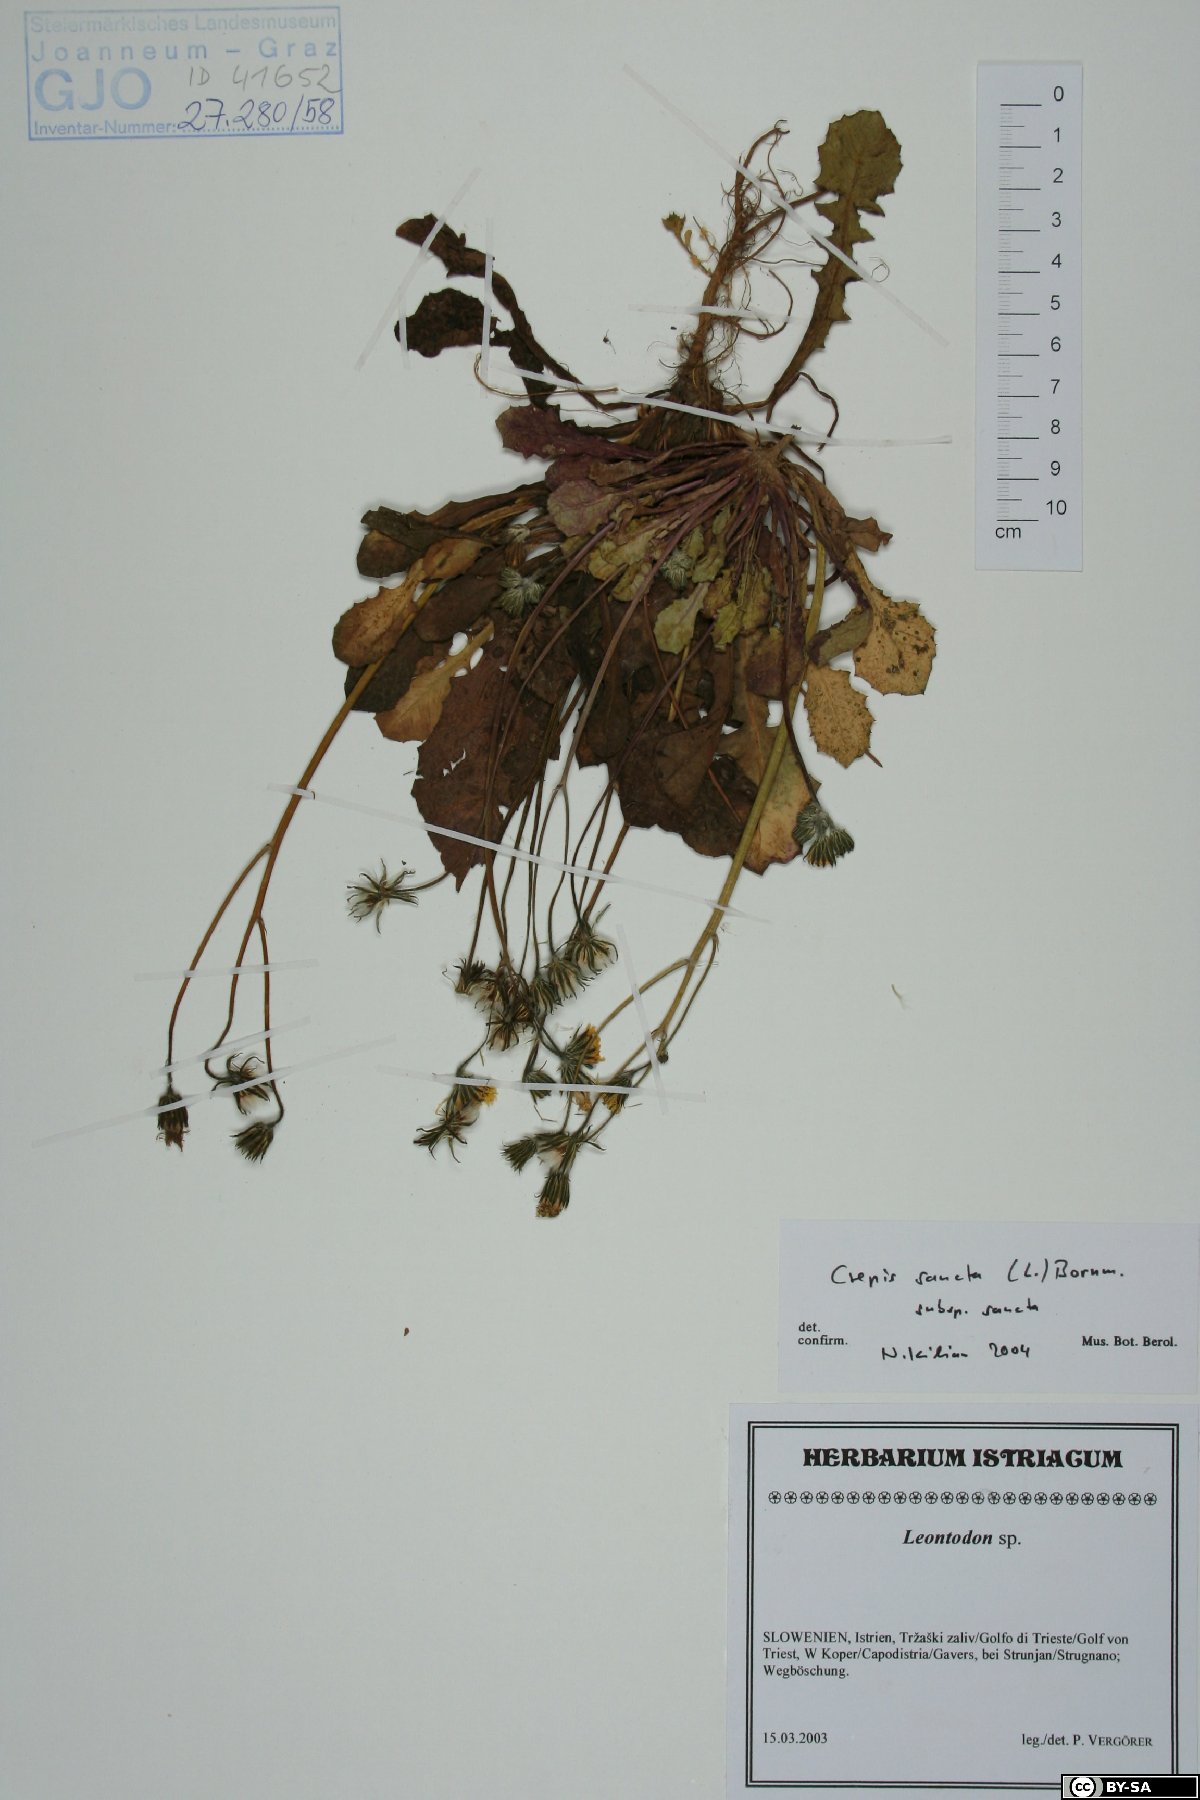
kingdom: Plantae
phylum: Tracheophyta
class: Magnoliopsida
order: Asterales
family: Asteraceae
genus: Crepis
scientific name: Crepis sancta
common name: Hawk's-beard
